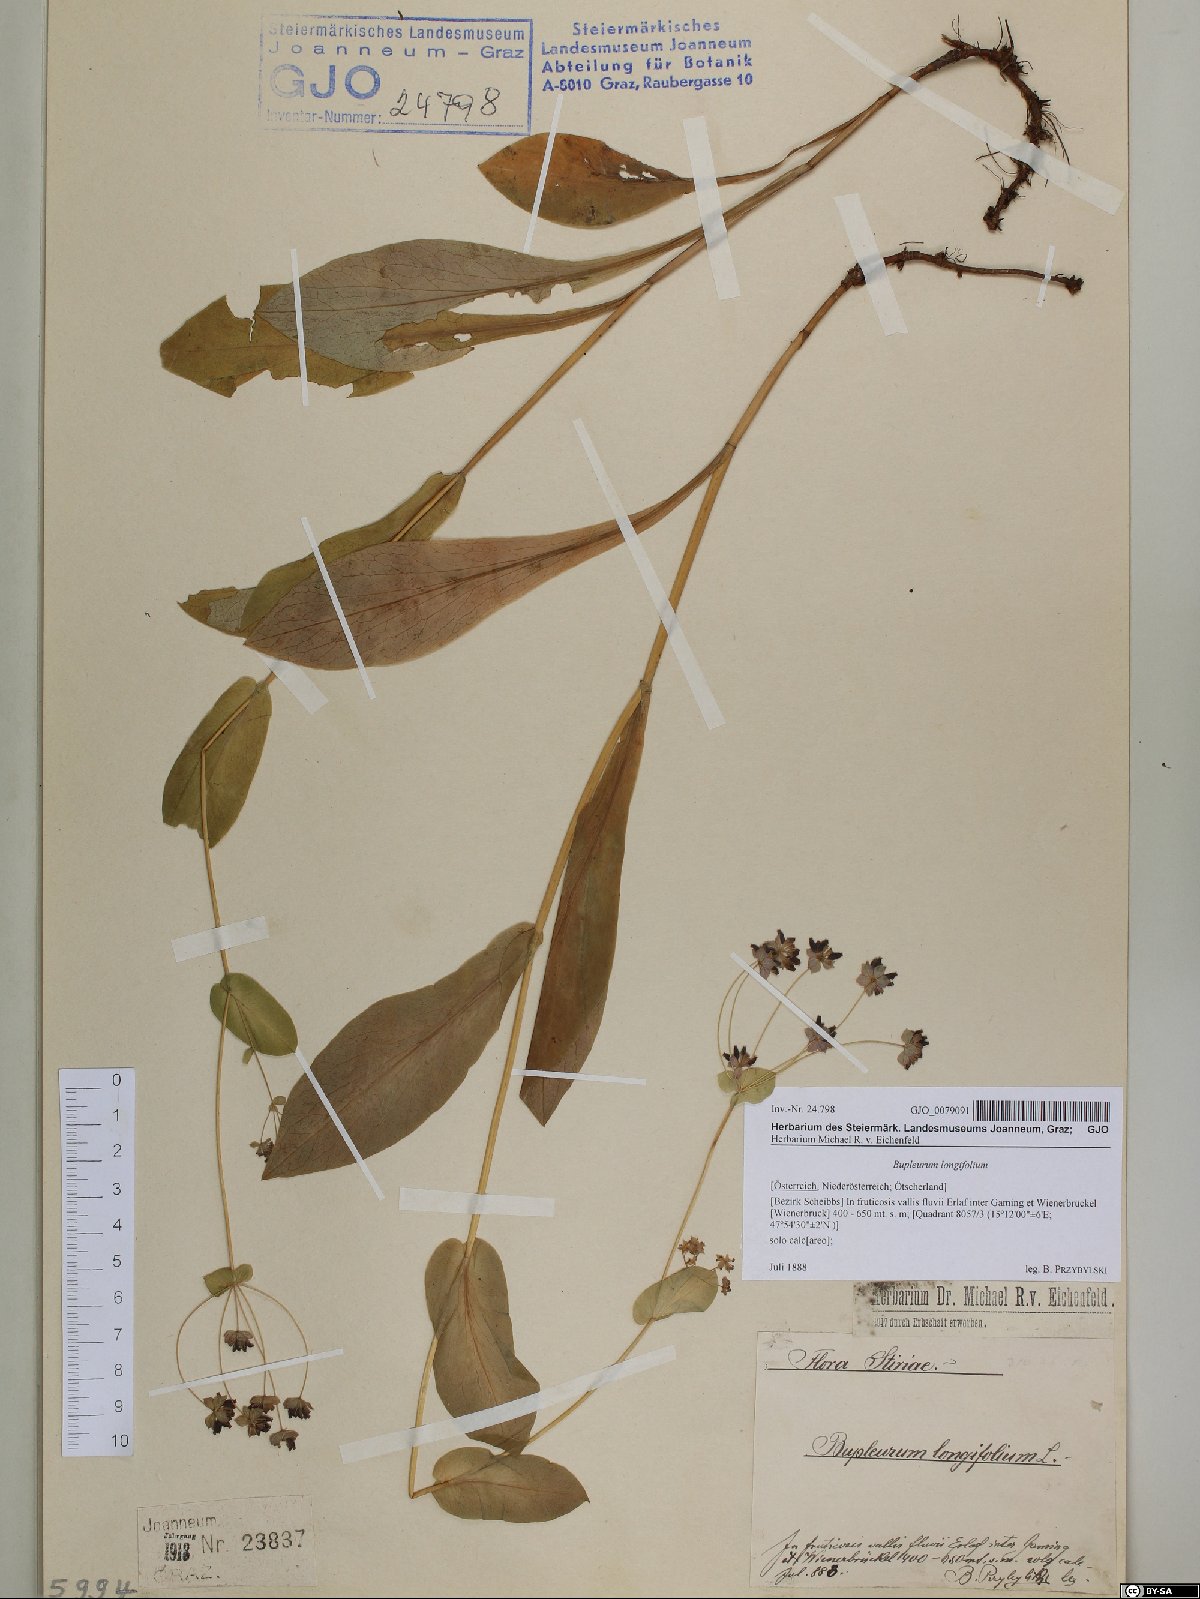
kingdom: Plantae
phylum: Tracheophyta
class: Magnoliopsida
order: Apiales
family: Apiaceae
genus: Bupleurum
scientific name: Bupleurum longifolium
